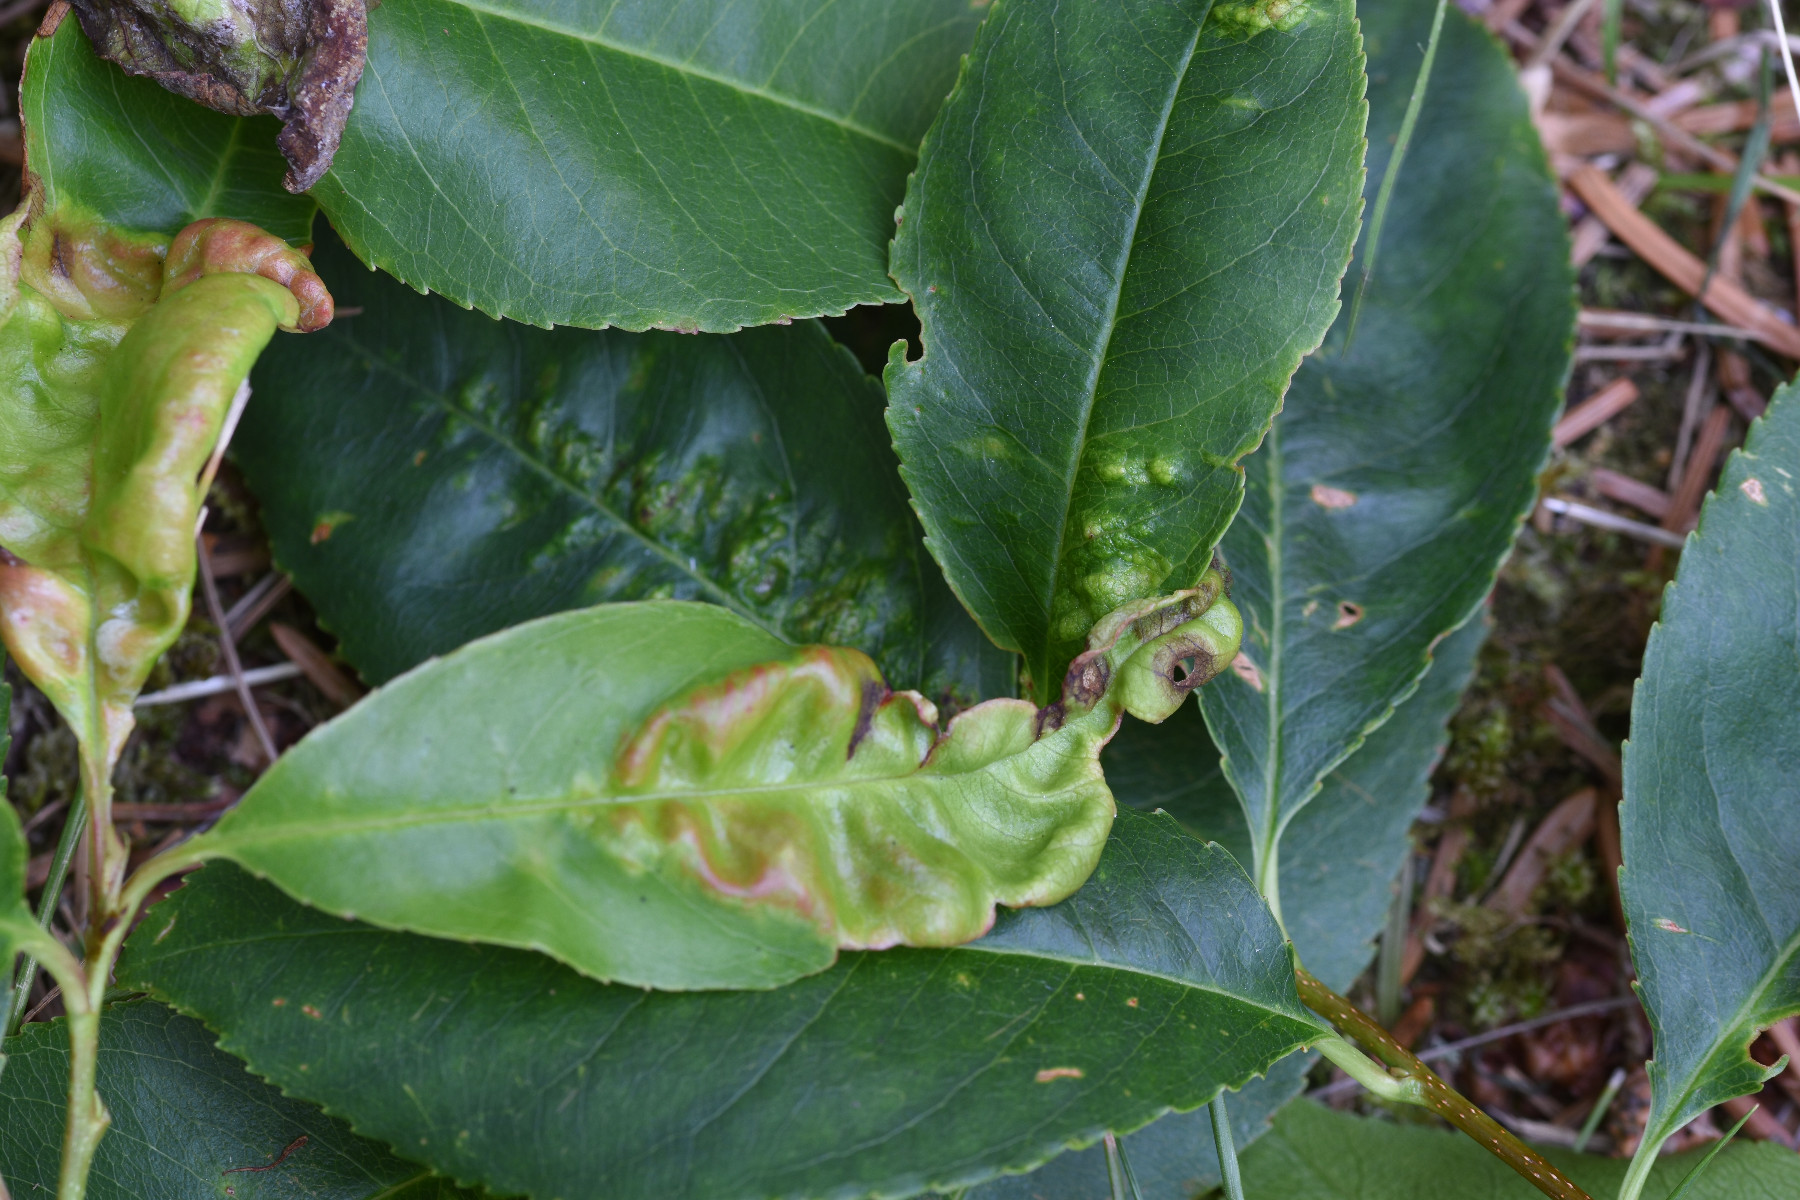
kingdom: Fungi
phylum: Ascomycota
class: Taphrinomycetes
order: Taphrinales
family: Taphrinaceae
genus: Taphrina
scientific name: Taphrina farlowii
